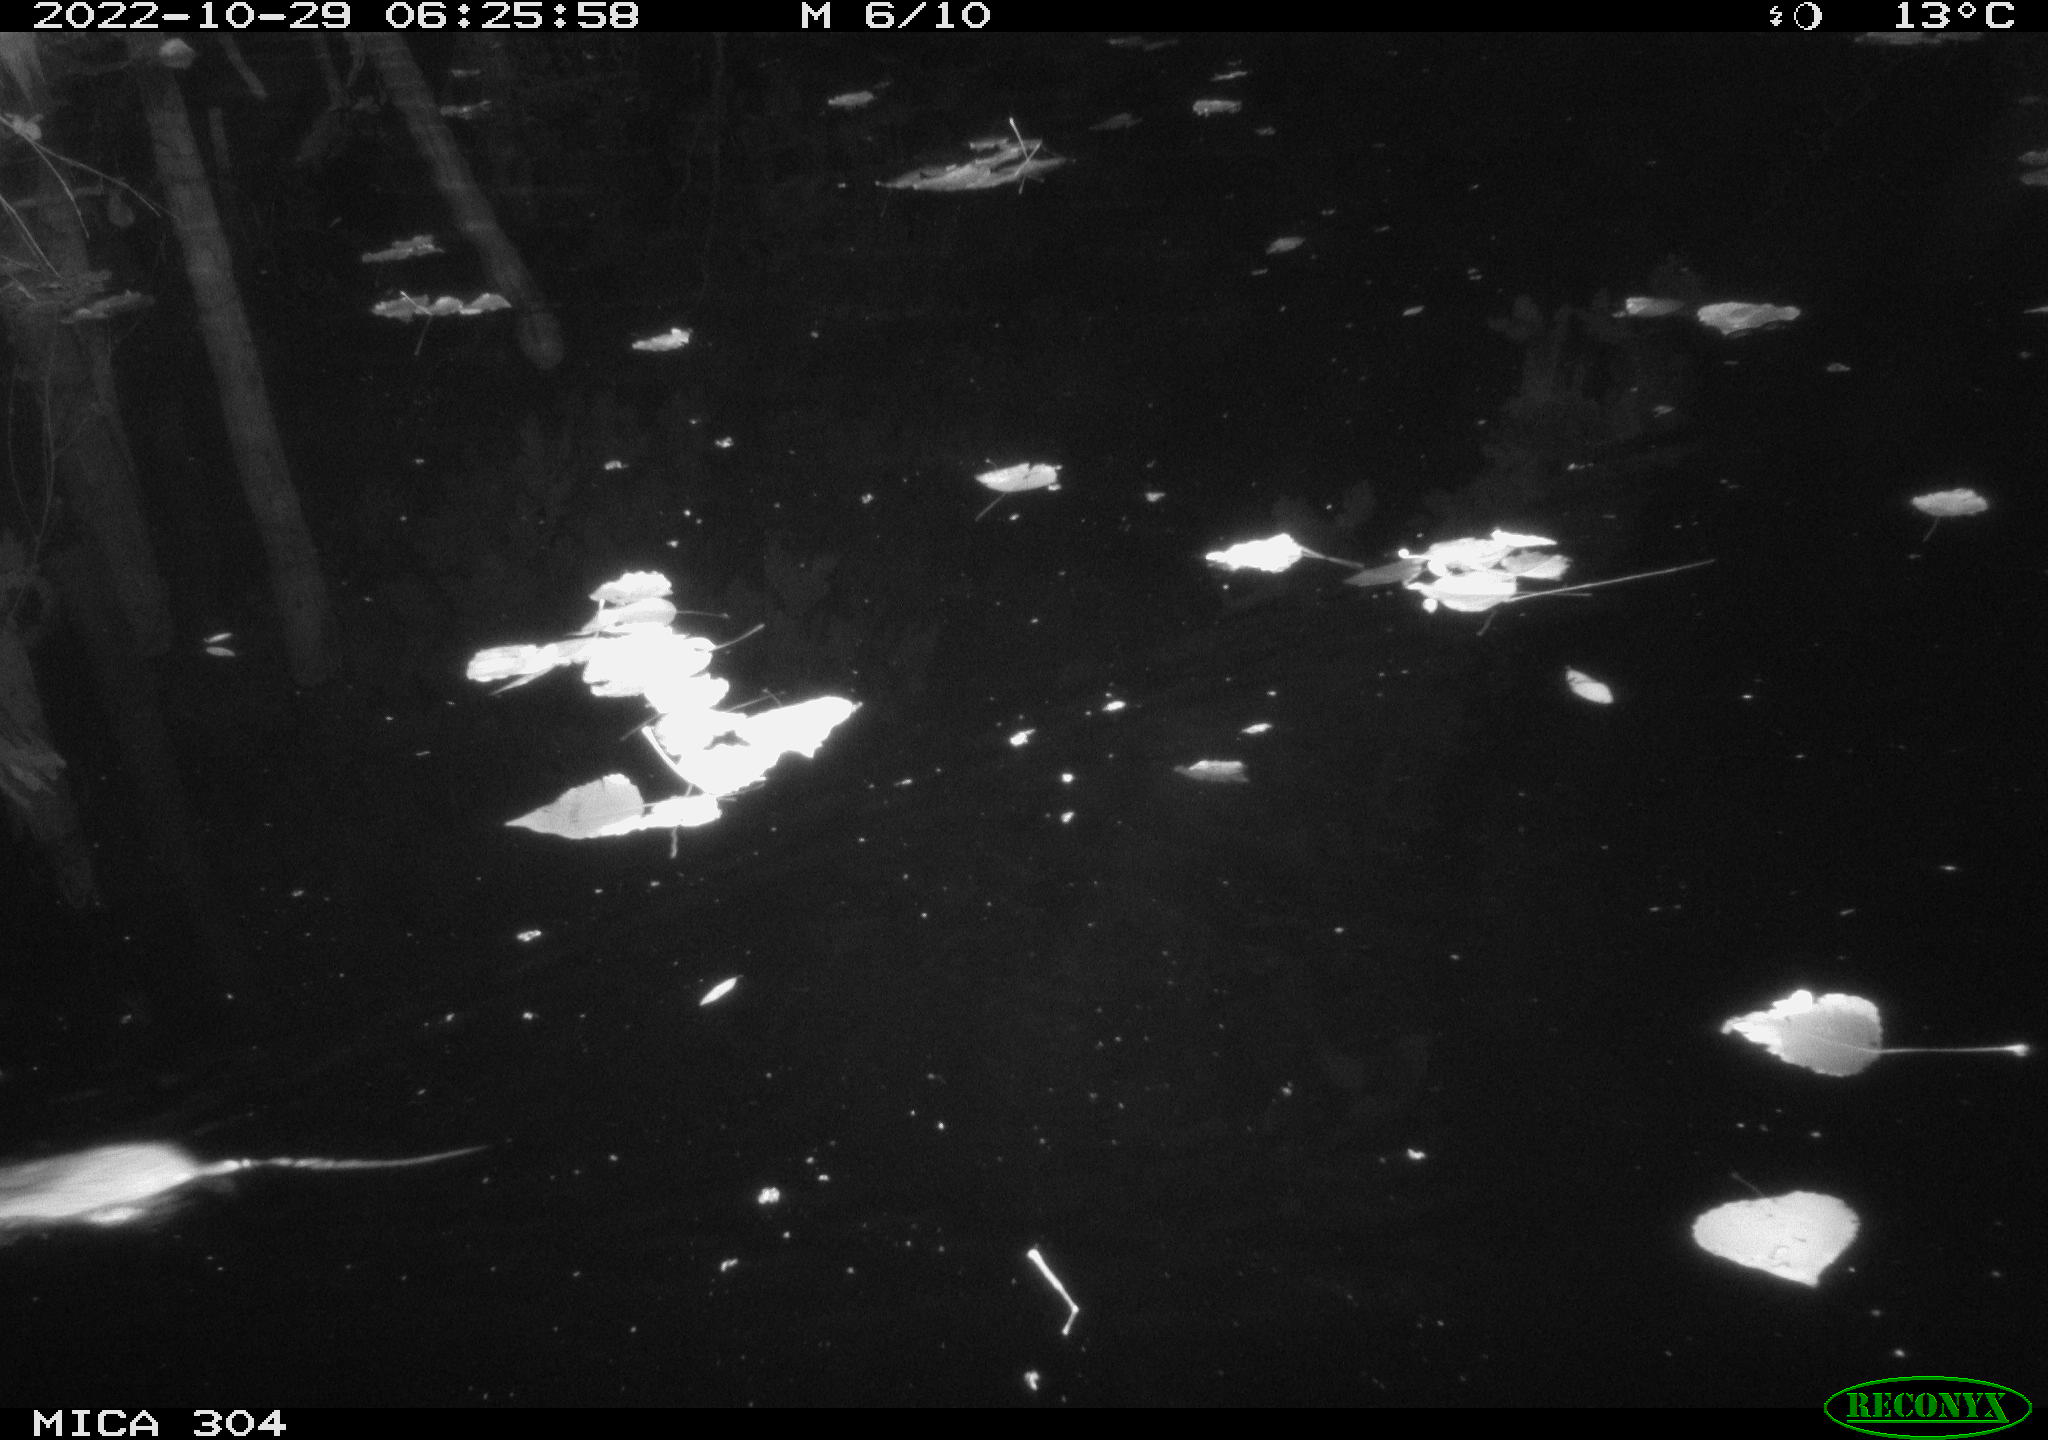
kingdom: Animalia
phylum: Chordata
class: Mammalia
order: Rodentia
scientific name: Rodentia
